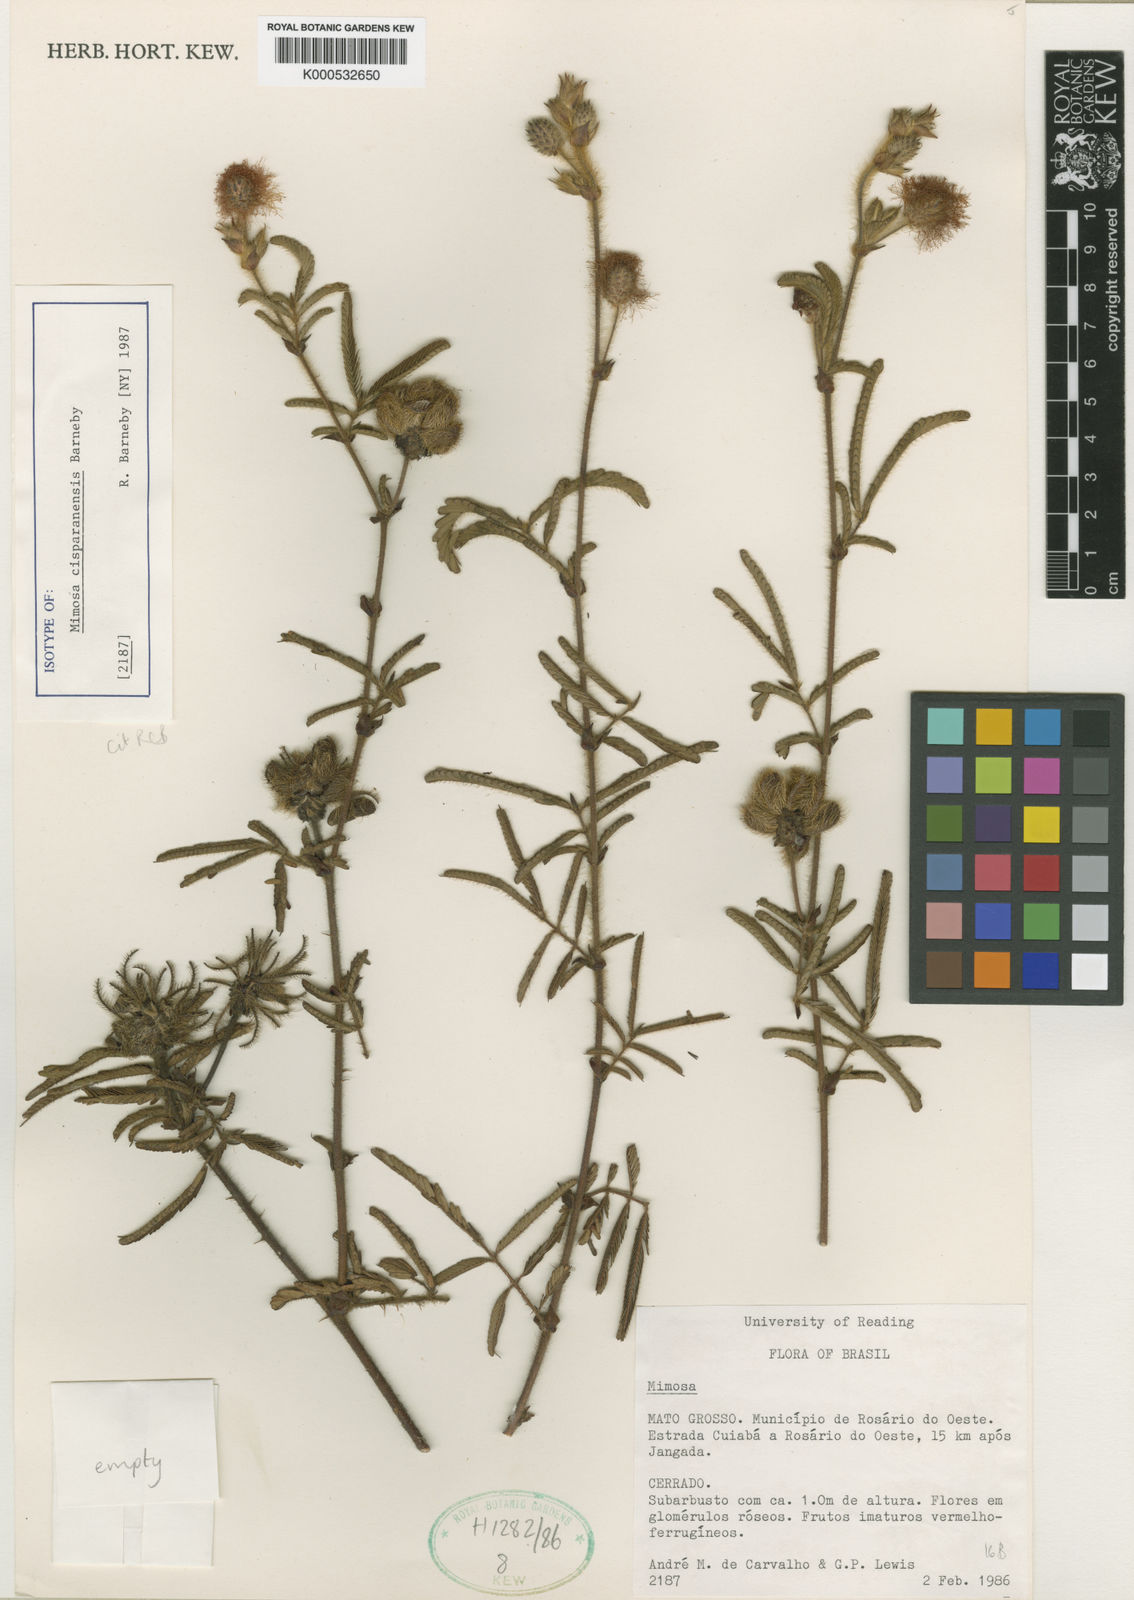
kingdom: Plantae
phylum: Tracheophyta
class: Magnoliopsida
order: Fabales
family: Fabaceae
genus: Mimosa
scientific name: Mimosa cisparanensis
